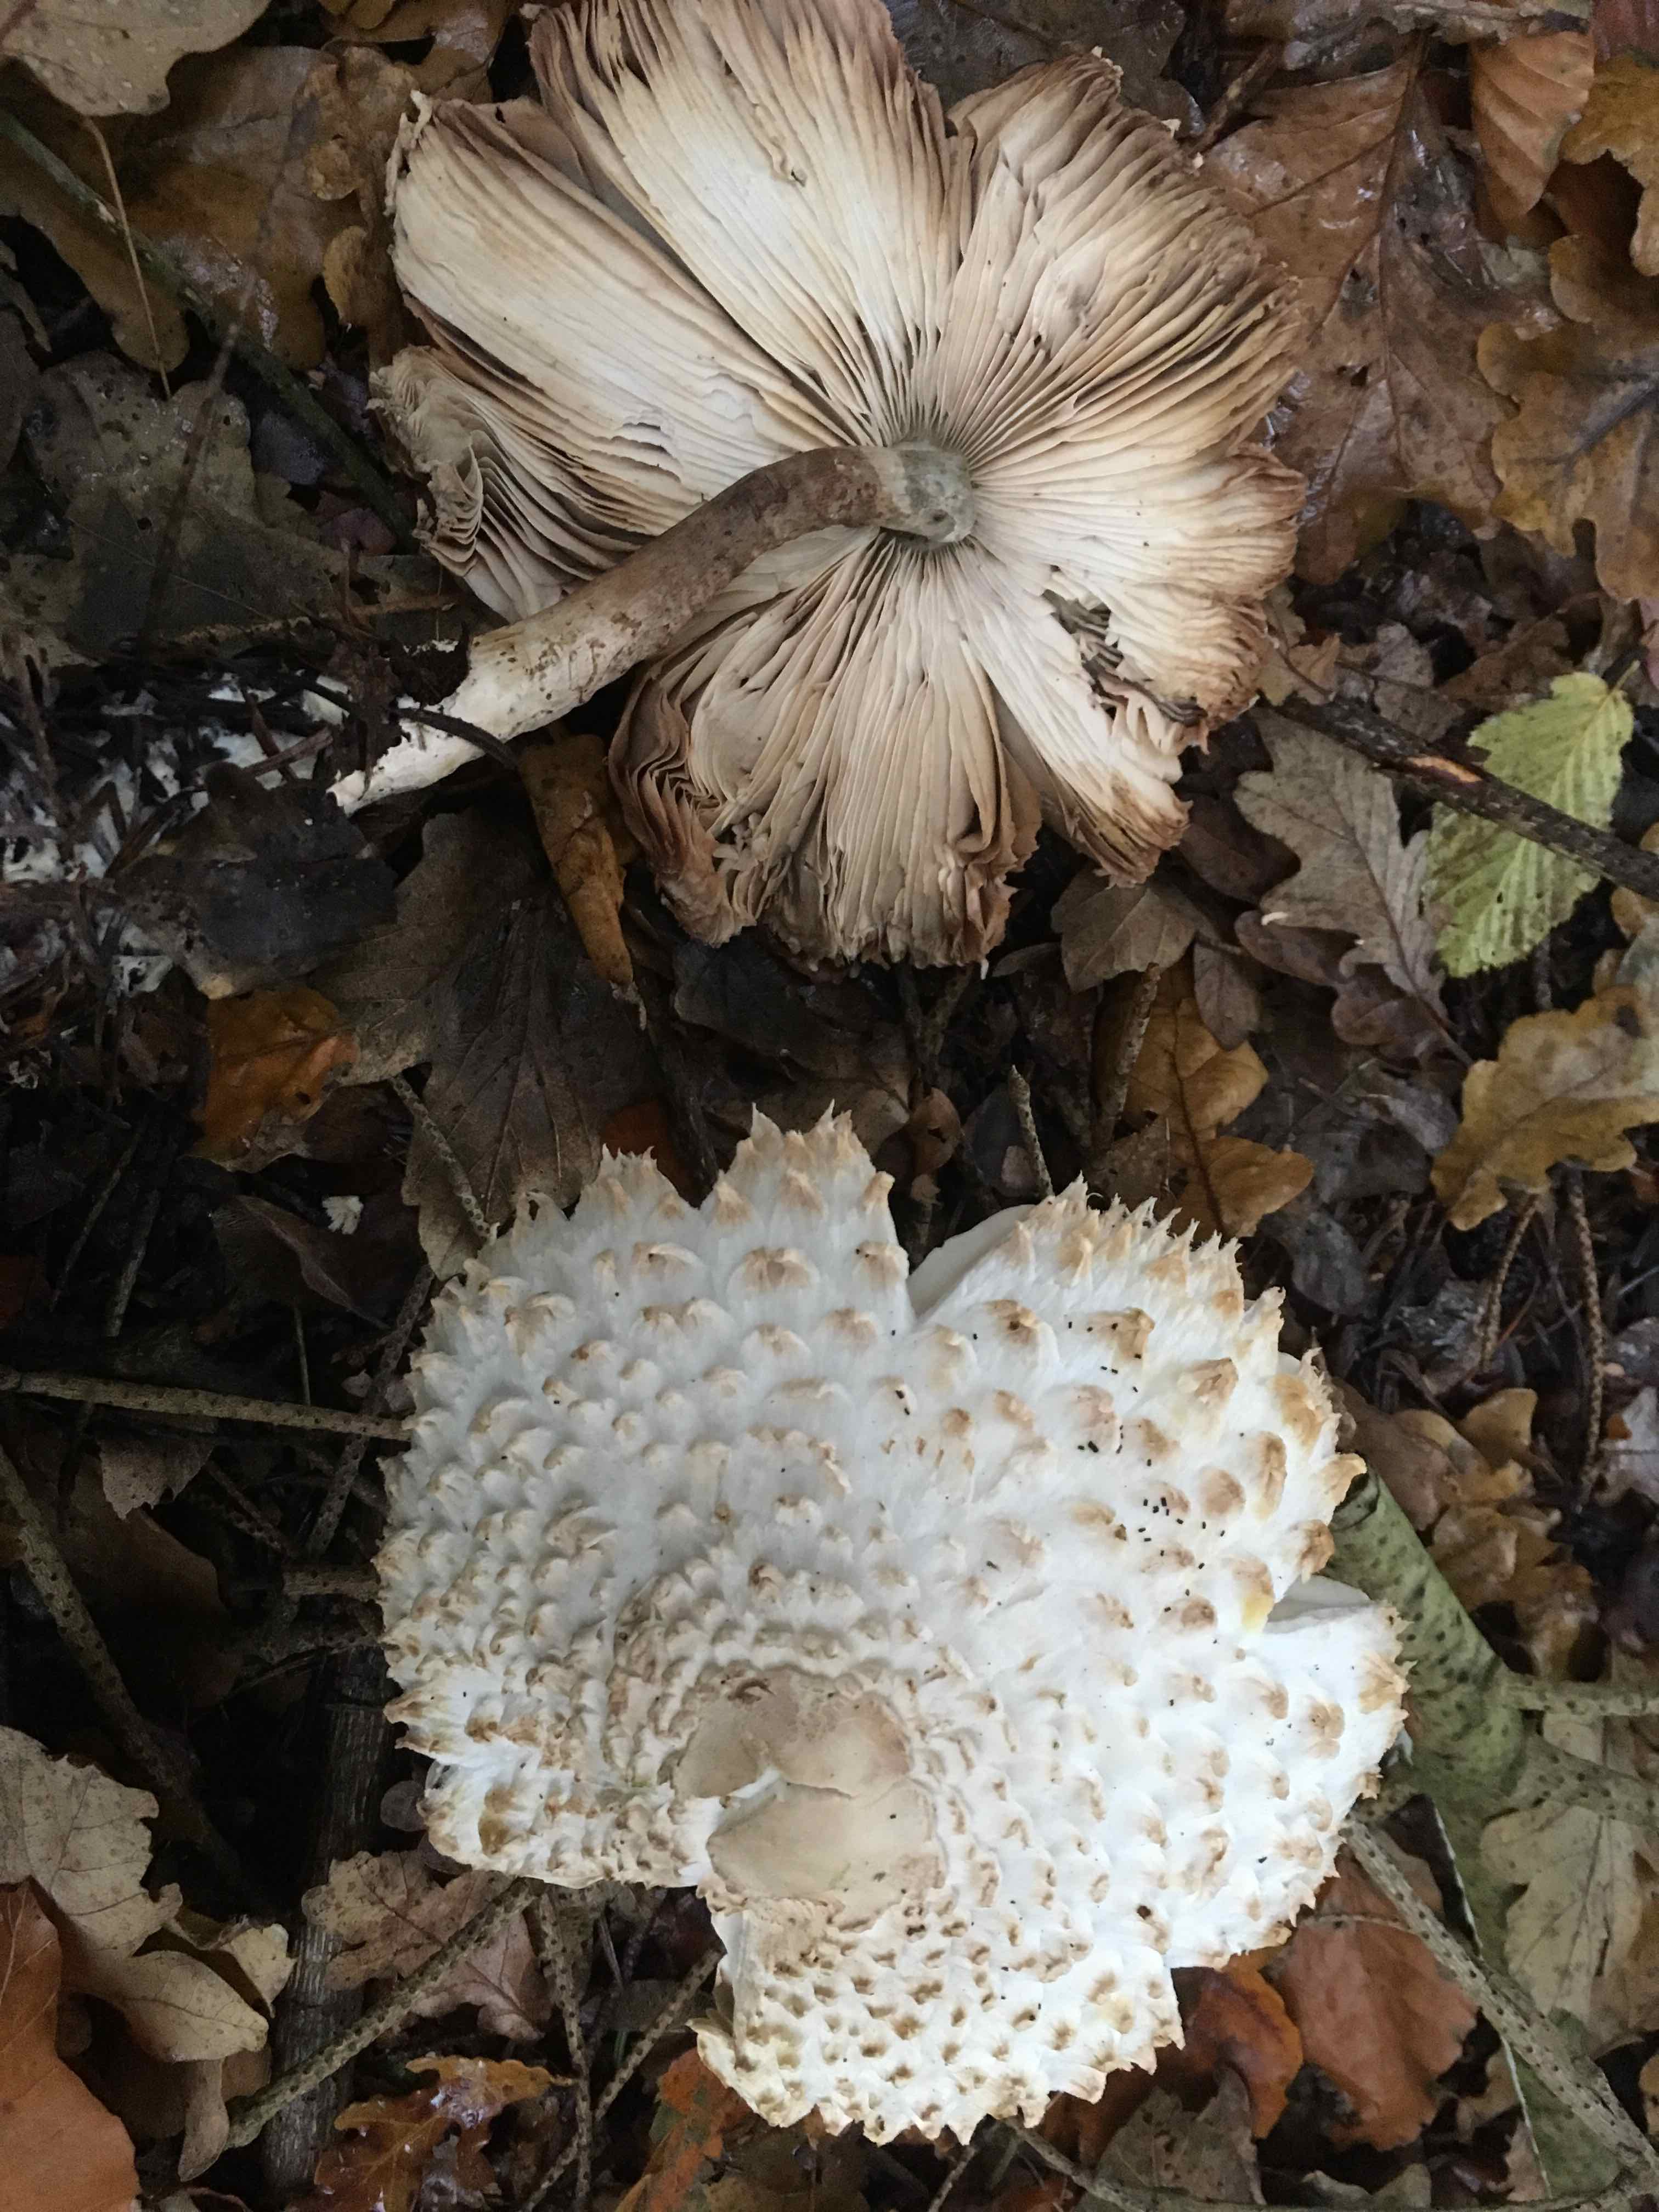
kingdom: Fungi
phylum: Basidiomycota
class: Agaricomycetes
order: Agaricales
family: Agaricaceae
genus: Leucoagaricus
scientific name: Leucoagaricus nympharum
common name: gran-silkehat
